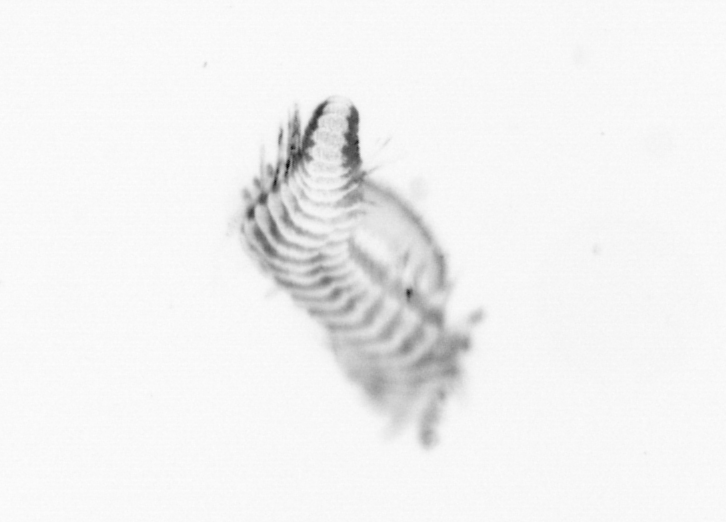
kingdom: Animalia
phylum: Annelida
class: Polychaeta
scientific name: Polychaeta
